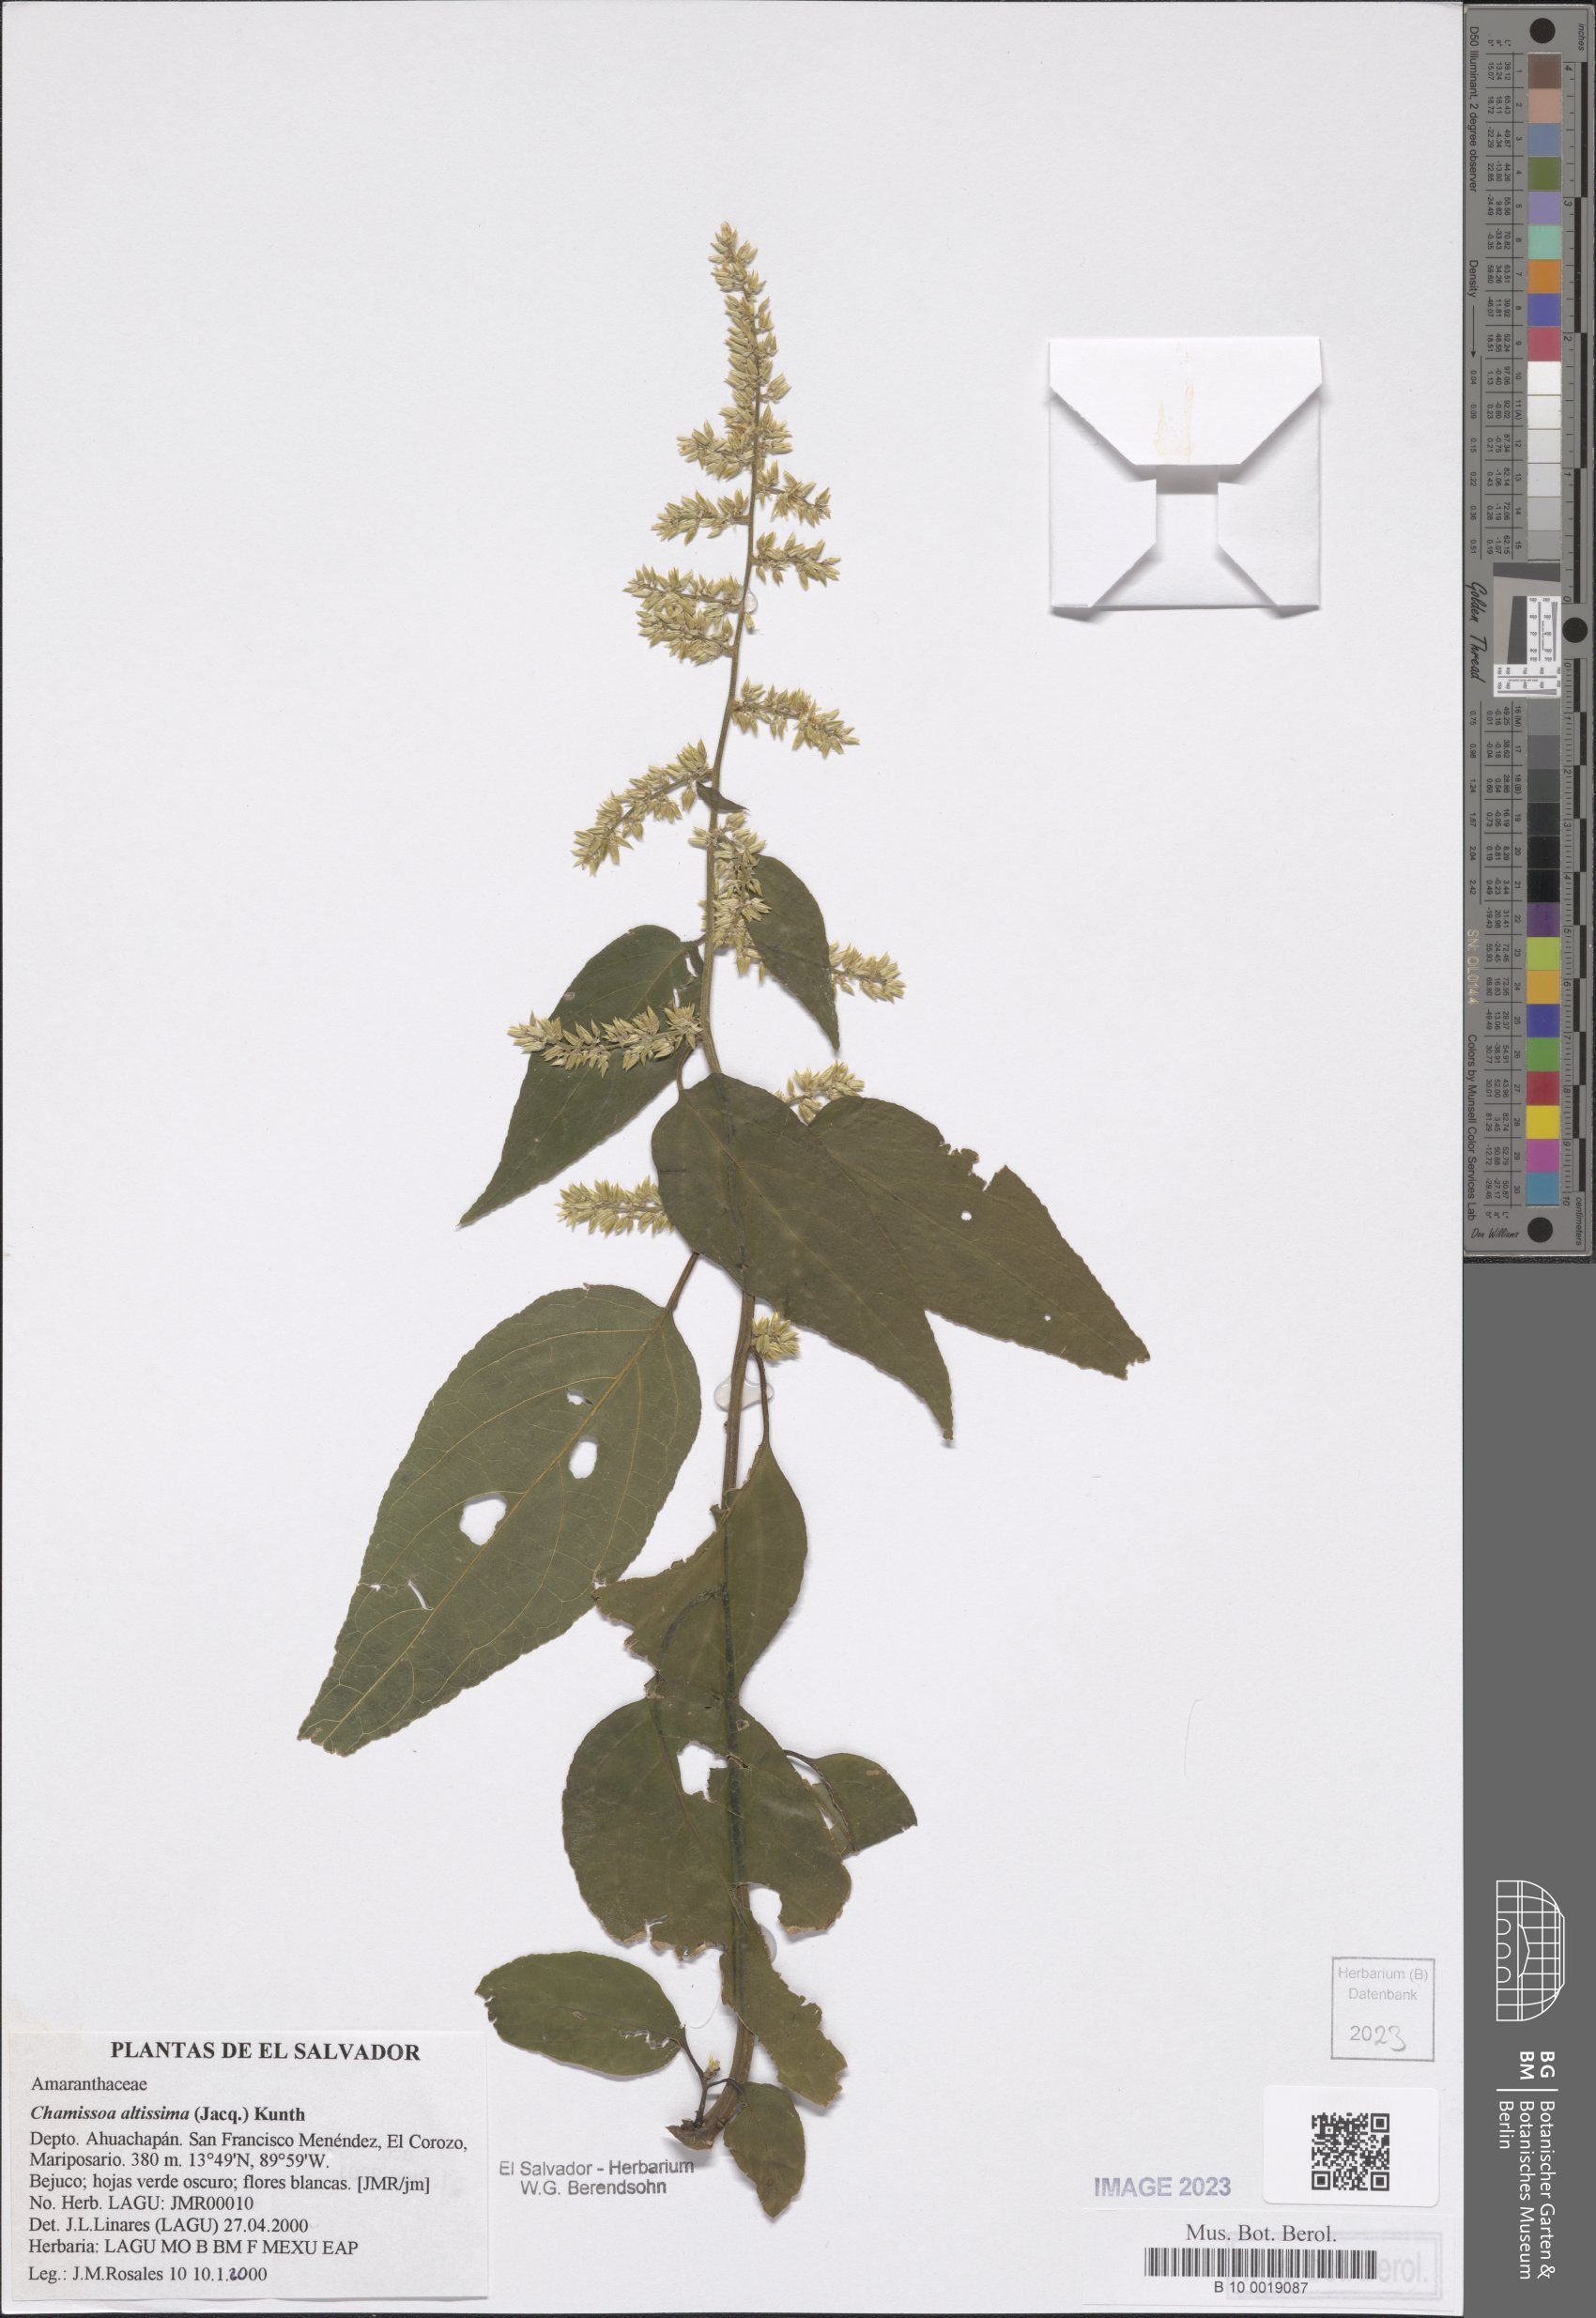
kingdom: Plantae
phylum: Tracheophyta
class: Magnoliopsida
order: Caryophyllales
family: Amaranthaceae
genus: Chamissoa
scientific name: Chamissoa altissima
